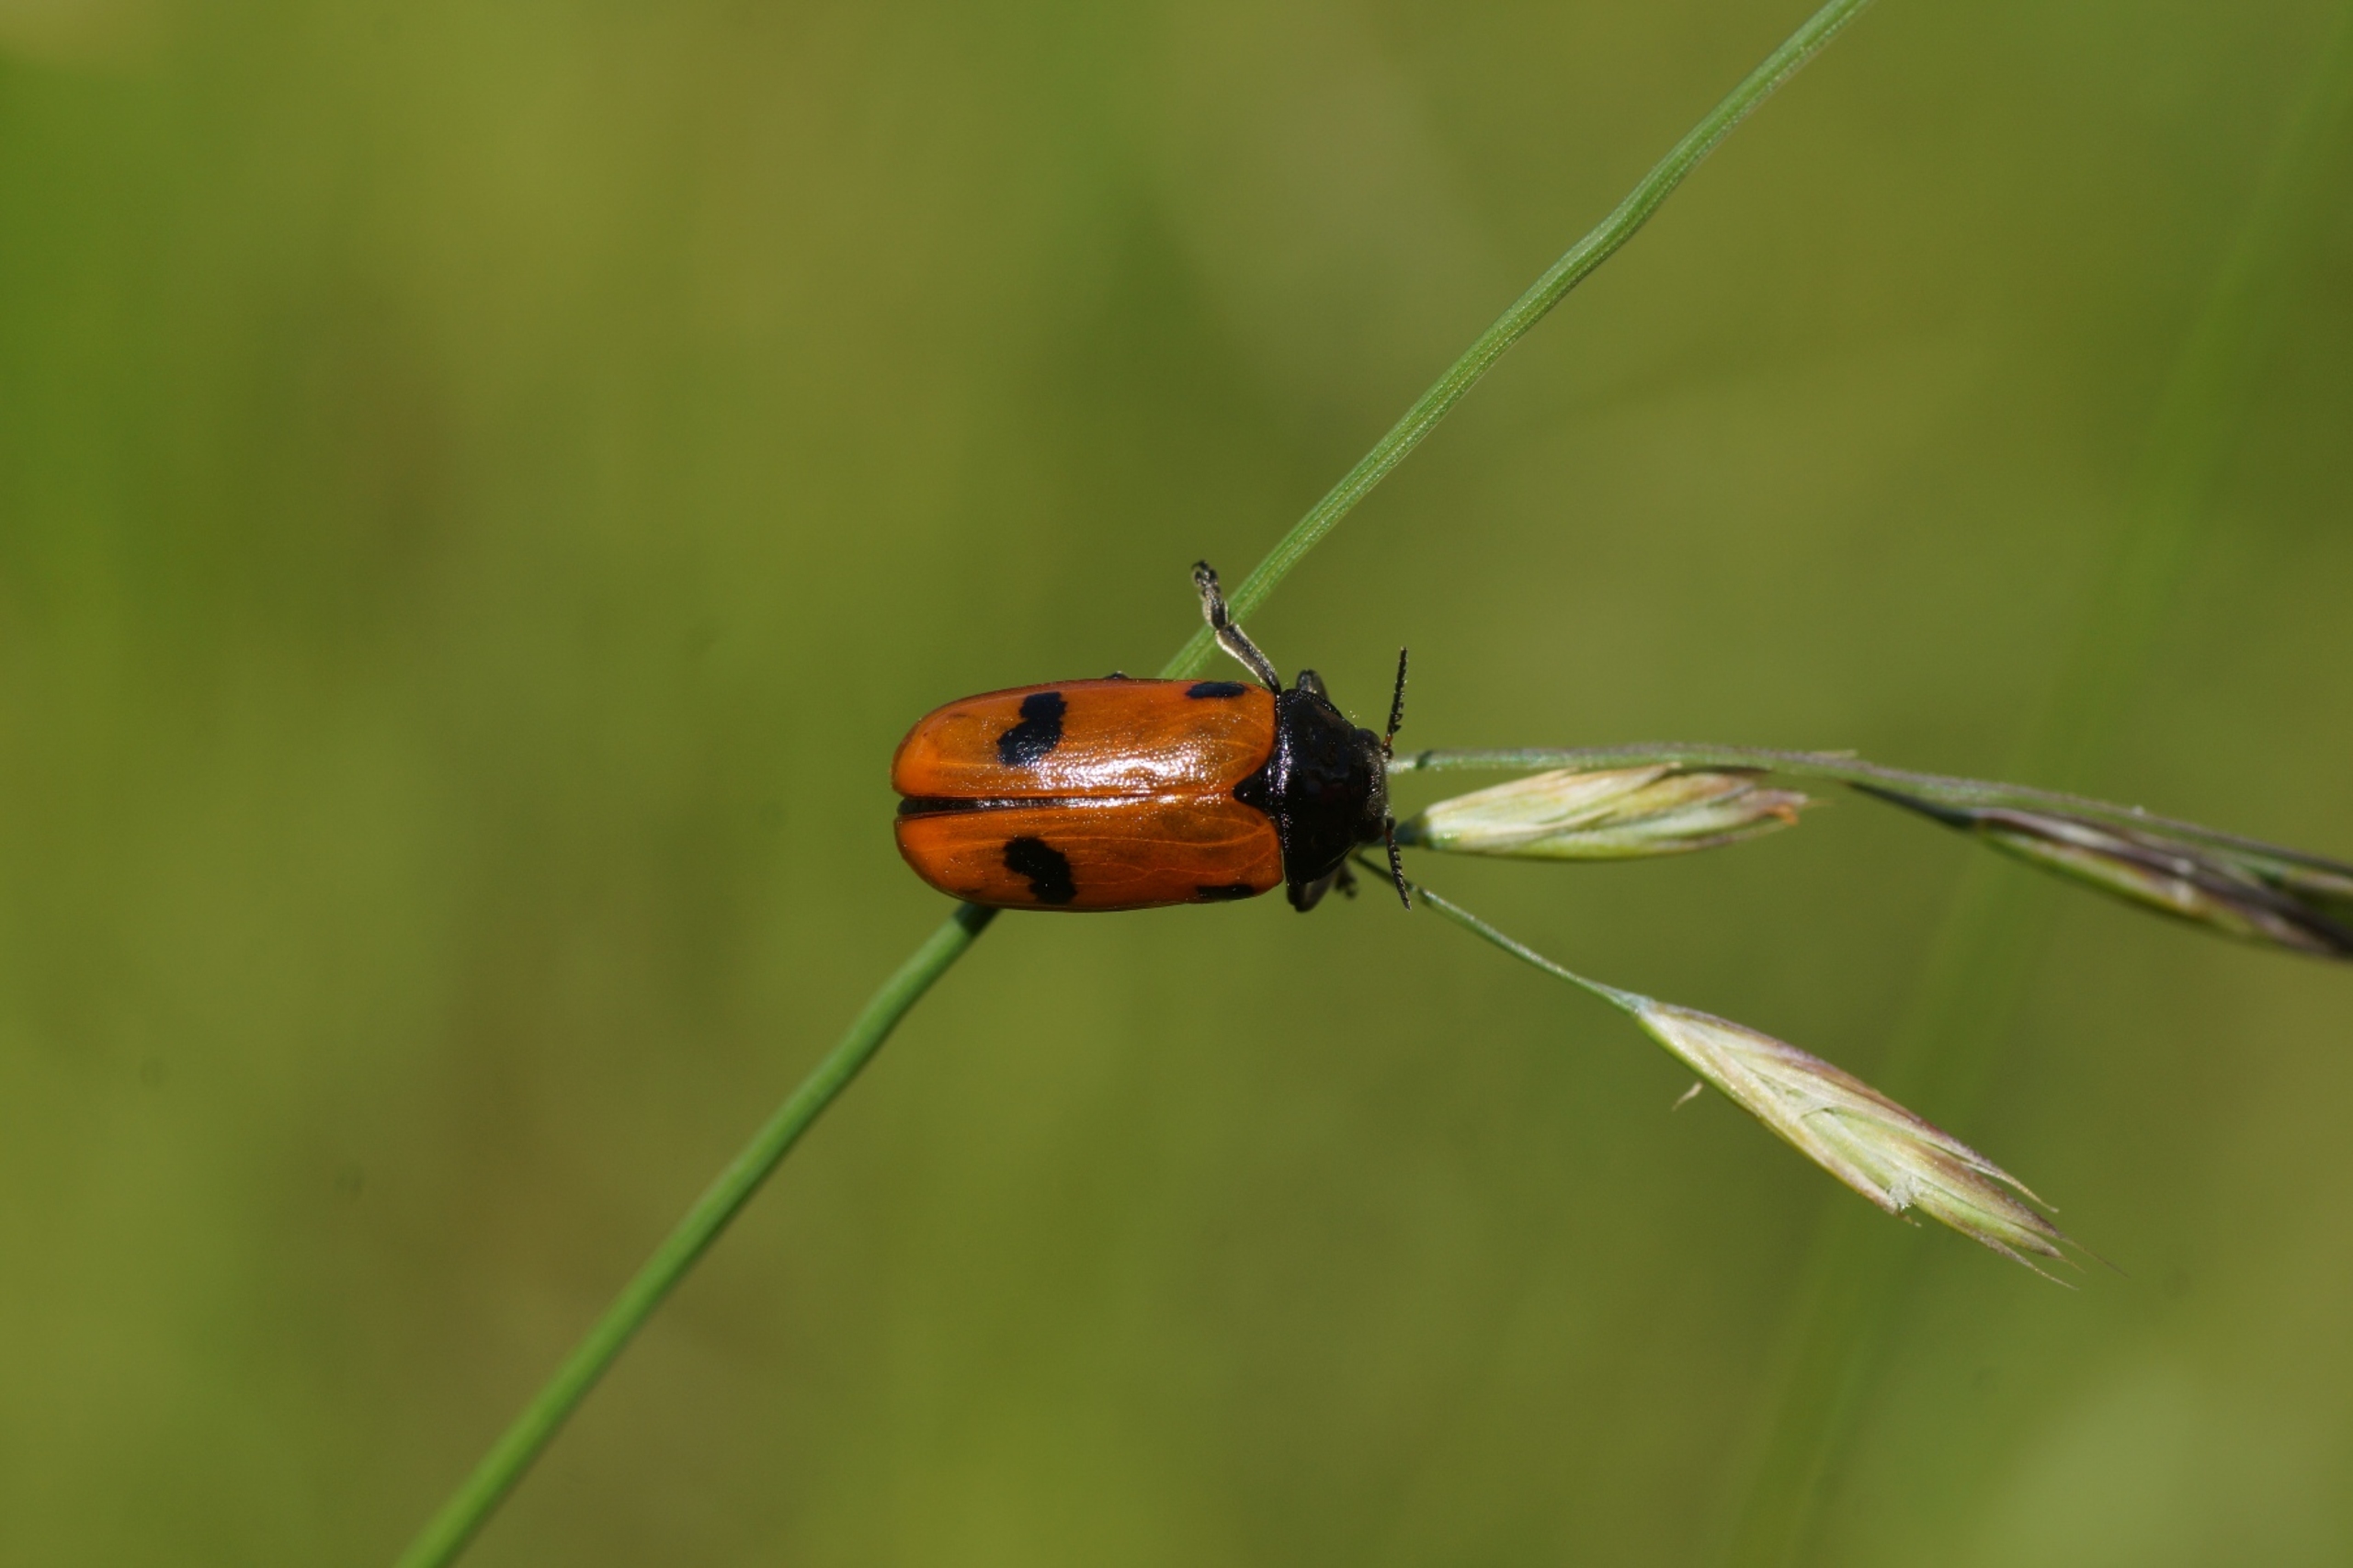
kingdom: Animalia
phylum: Arthropoda
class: Insecta
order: Coleoptera
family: Chrysomelidae
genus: Clytra
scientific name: Clytra quadripunctata
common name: Myrebladbille
